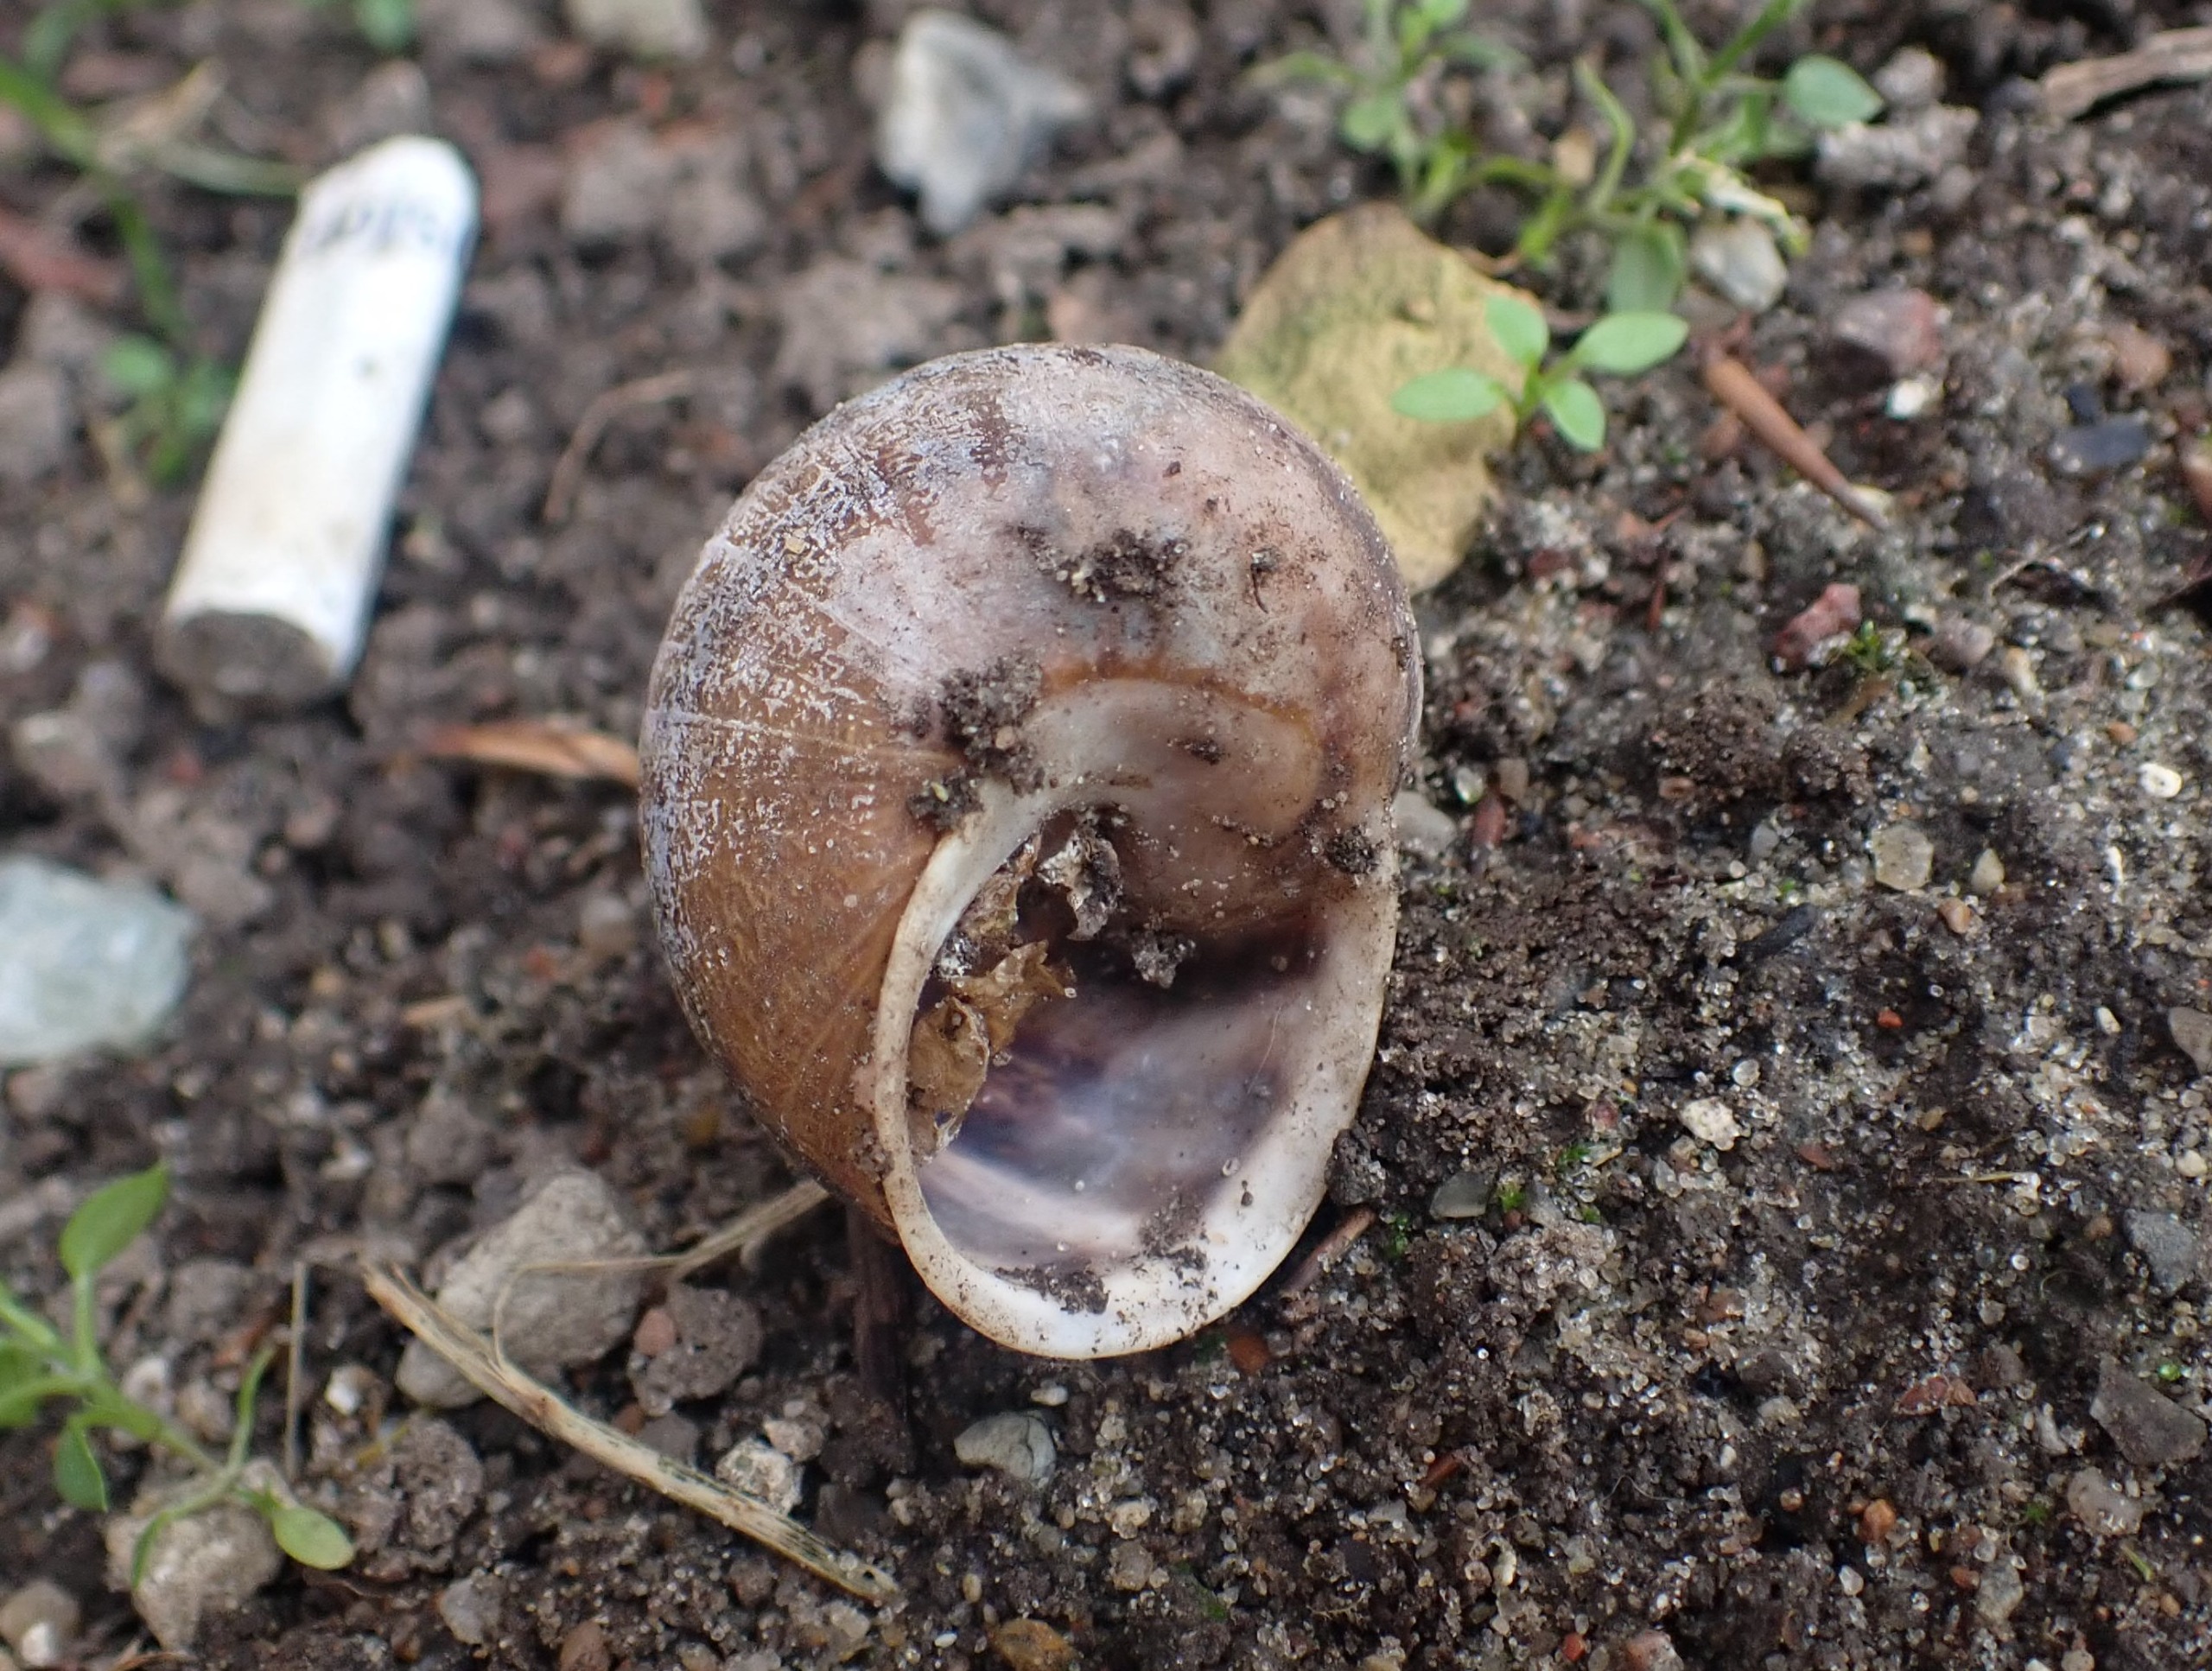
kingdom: Animalia
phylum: Mollusca
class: Gastropoda
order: Stylommatophora
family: Helicidae
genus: Cornu
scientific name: Cornu aspersum
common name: Plettet voldsnegl
